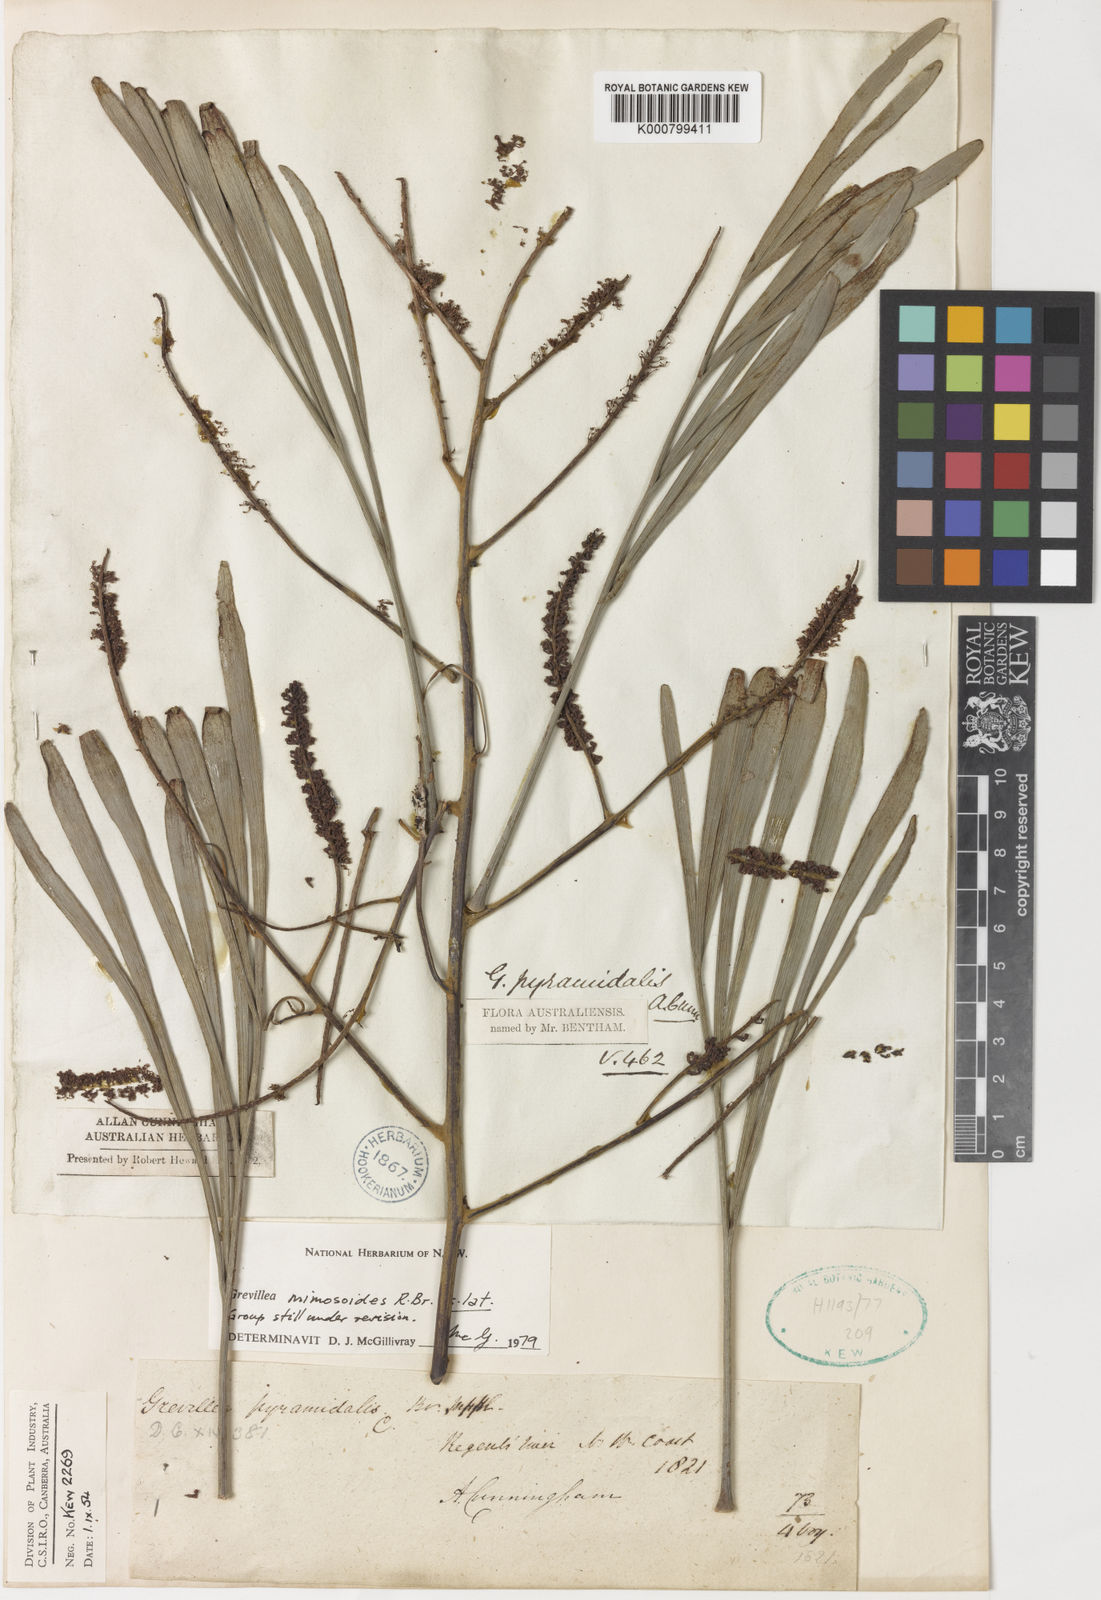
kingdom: Plantae
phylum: Tracheophyta
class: Magnoliopsida
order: Proteales
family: Proteaceae
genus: Grevillea
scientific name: Grevillea pyramidalis
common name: Caustictree
